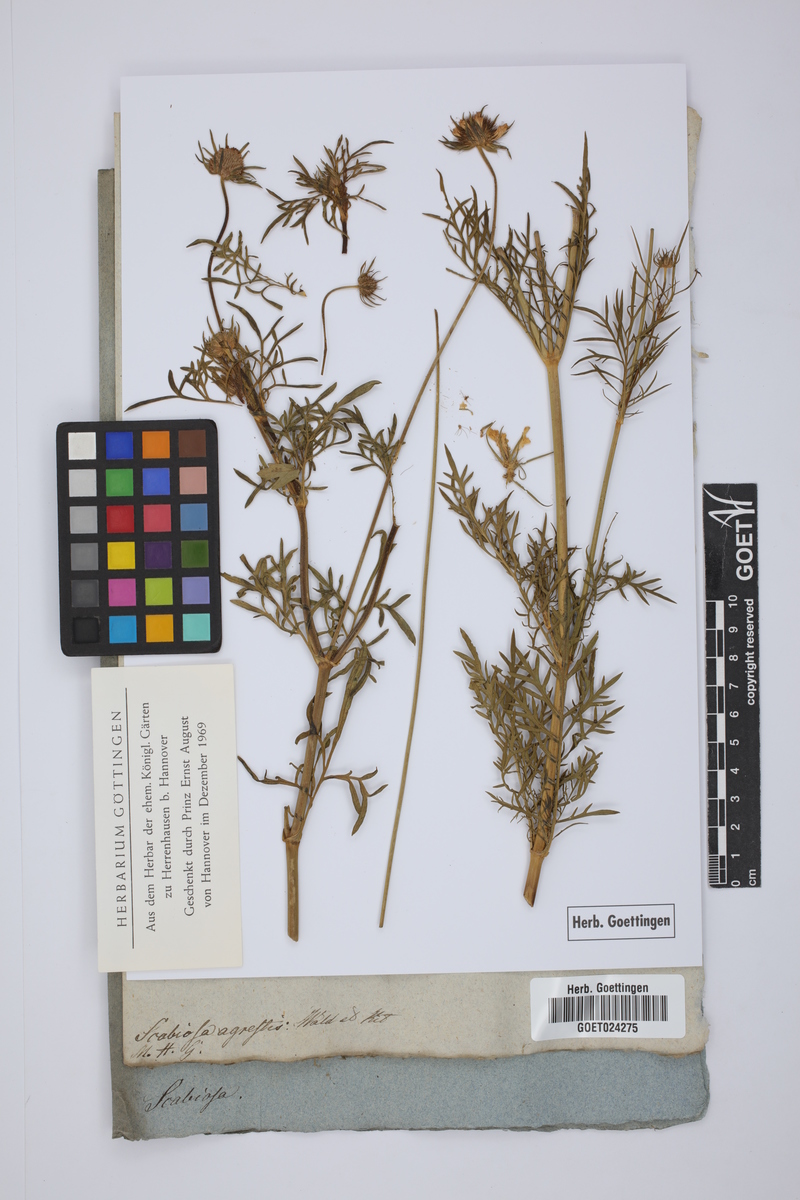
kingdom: Plantae
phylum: Tracheophyta
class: Magnoliopsida
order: Dipsacales
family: Caprifoliaceae
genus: Scabiosa
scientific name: Scabiosa cinerea
